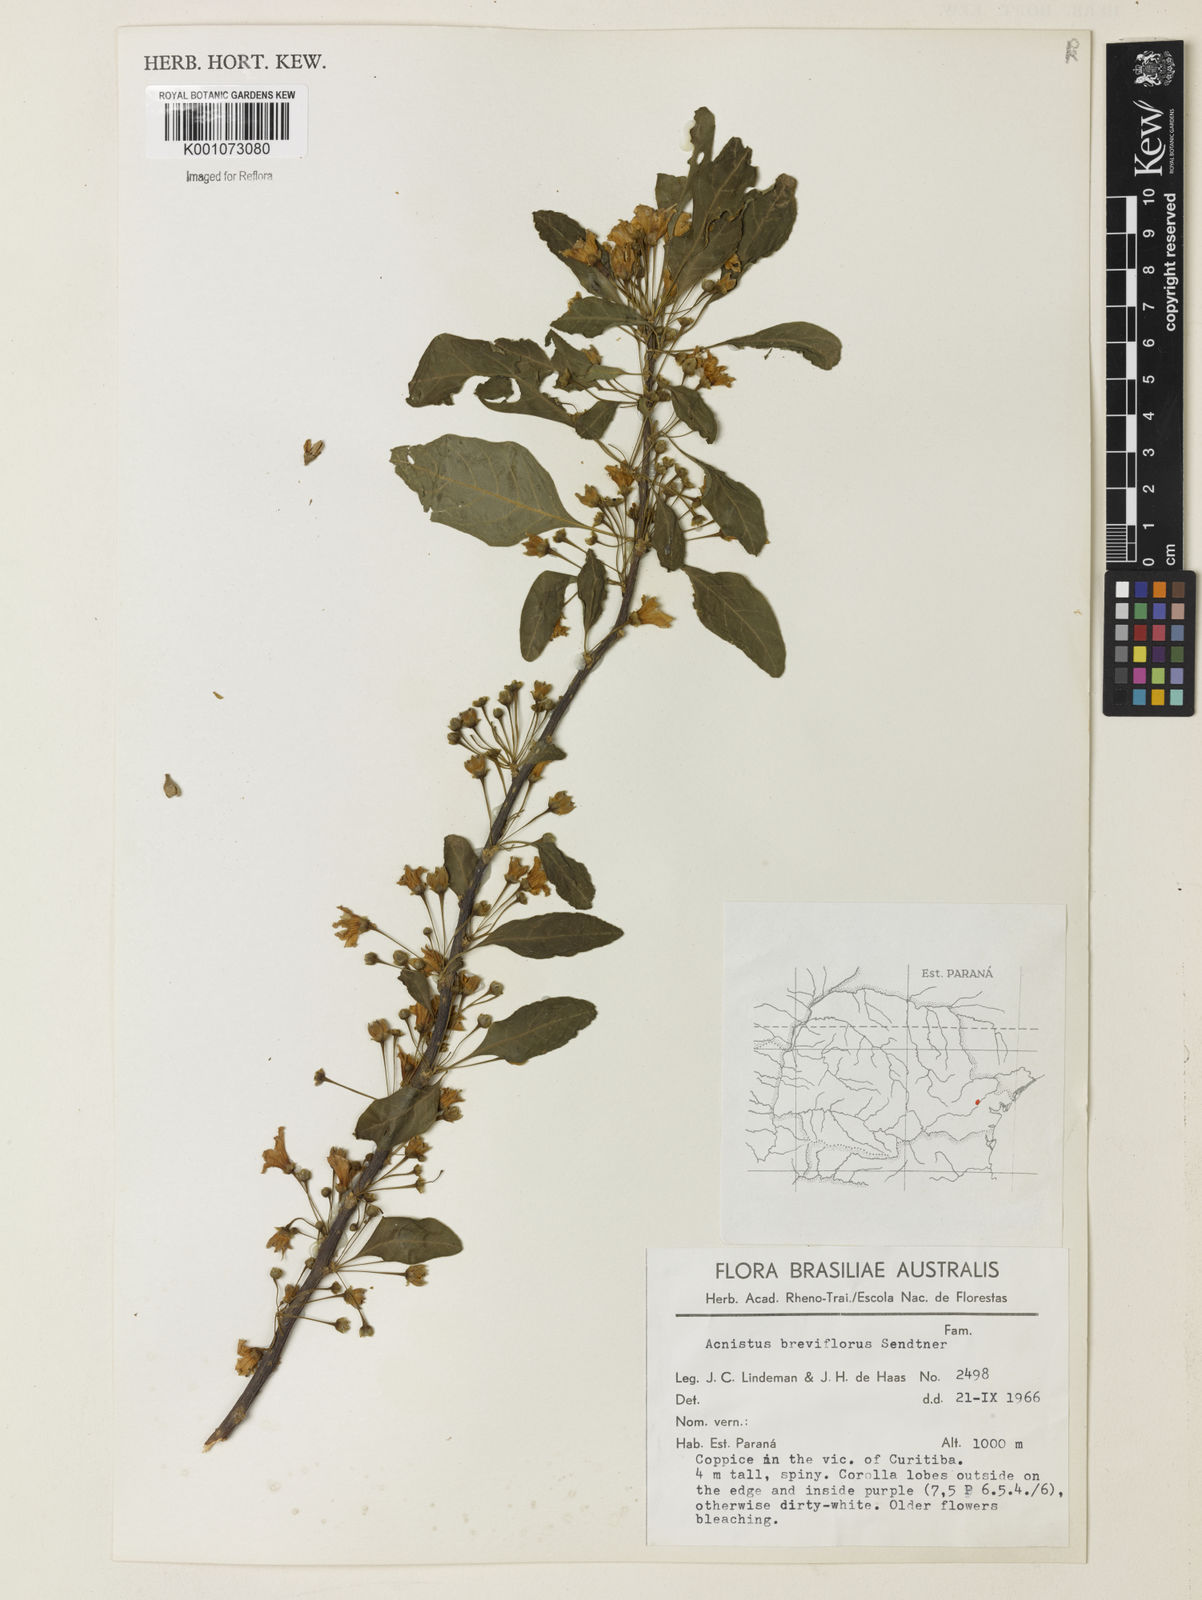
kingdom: Plantae
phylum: Tracheophyta
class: Magnoliopsida
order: Solanales
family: Solanaceae
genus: Vassobia
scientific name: Vassobia breviflora
